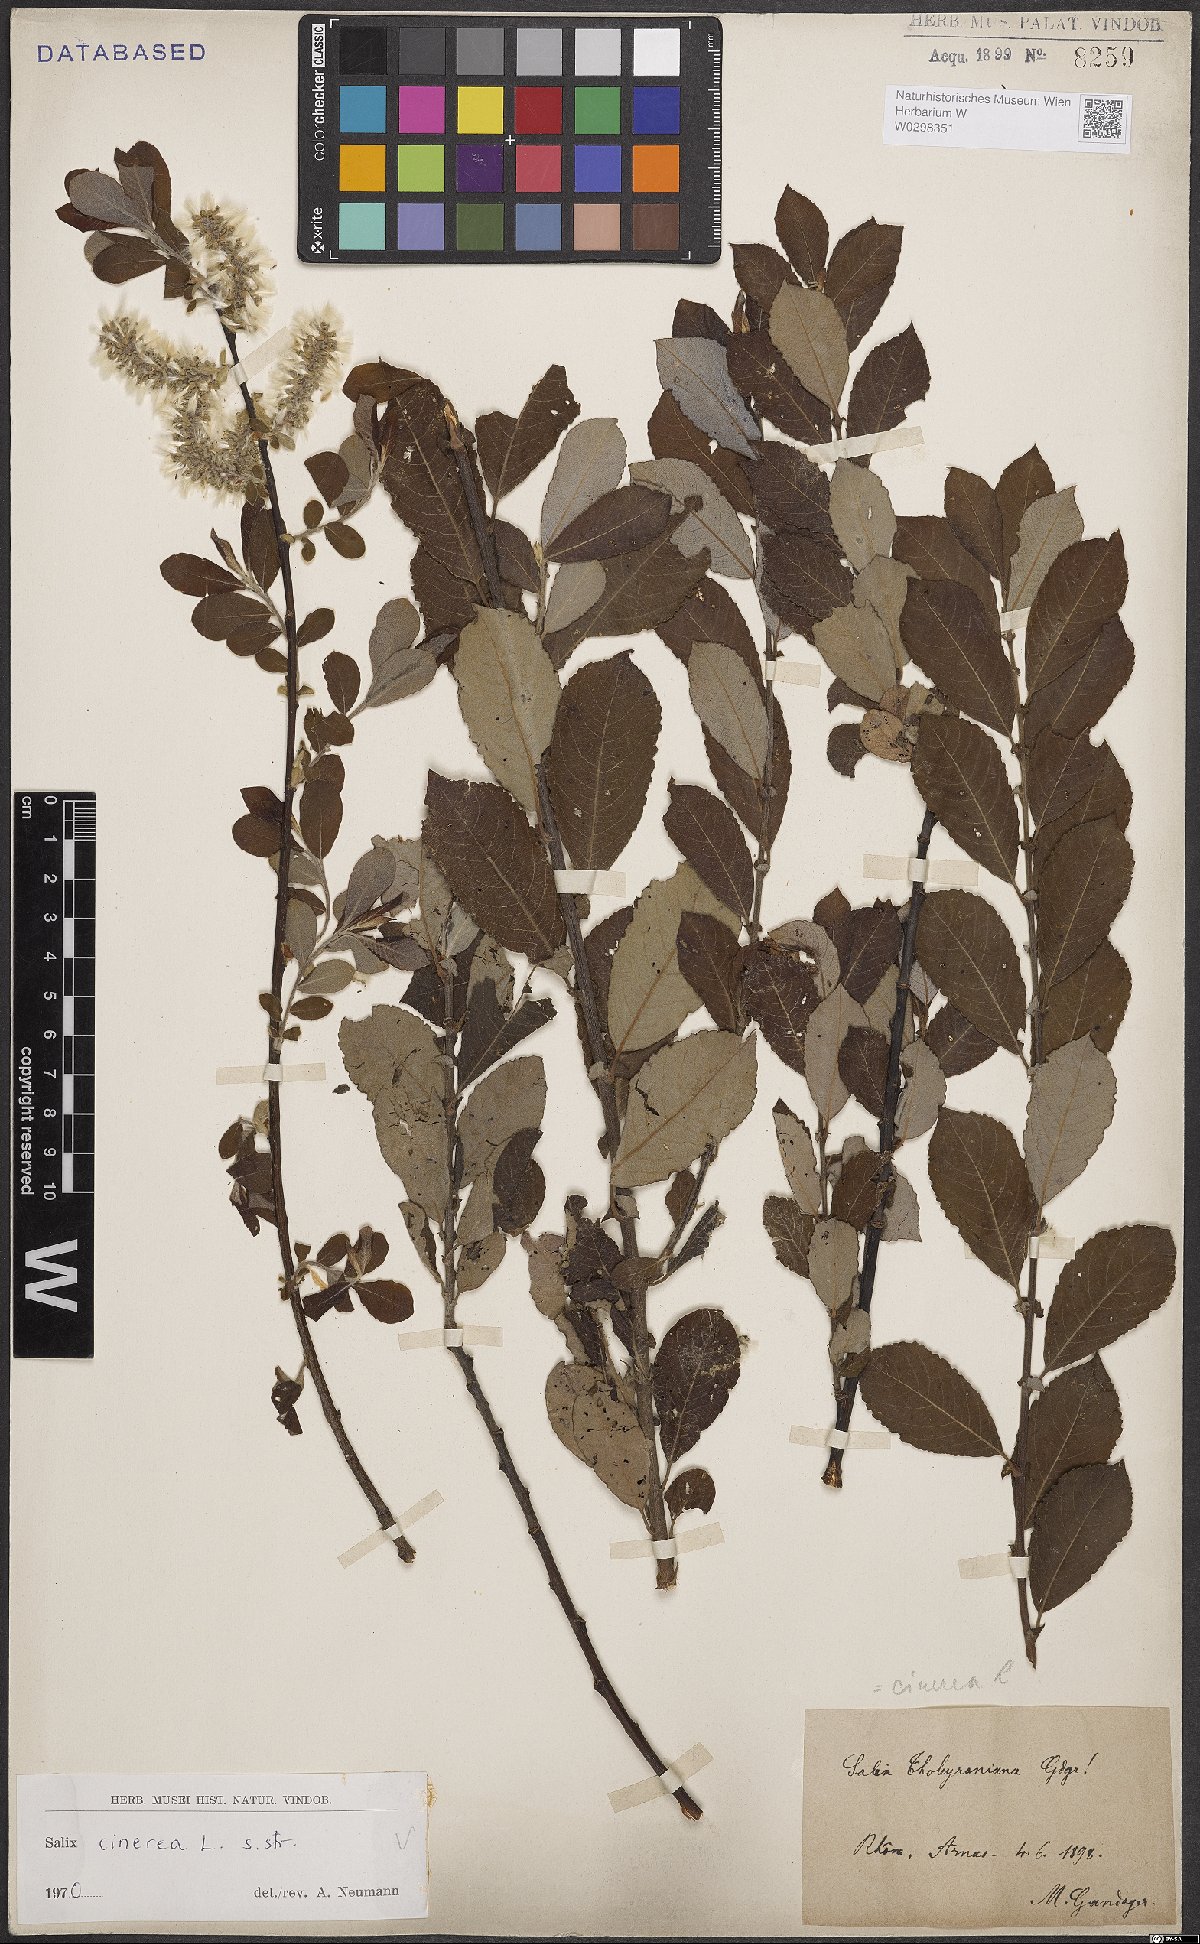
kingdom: Plantae
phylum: Tracheophyta
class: Magnoliopsida
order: Malpighiales
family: Salicaceae
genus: Salix
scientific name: Salix cinerea
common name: Common sallow
